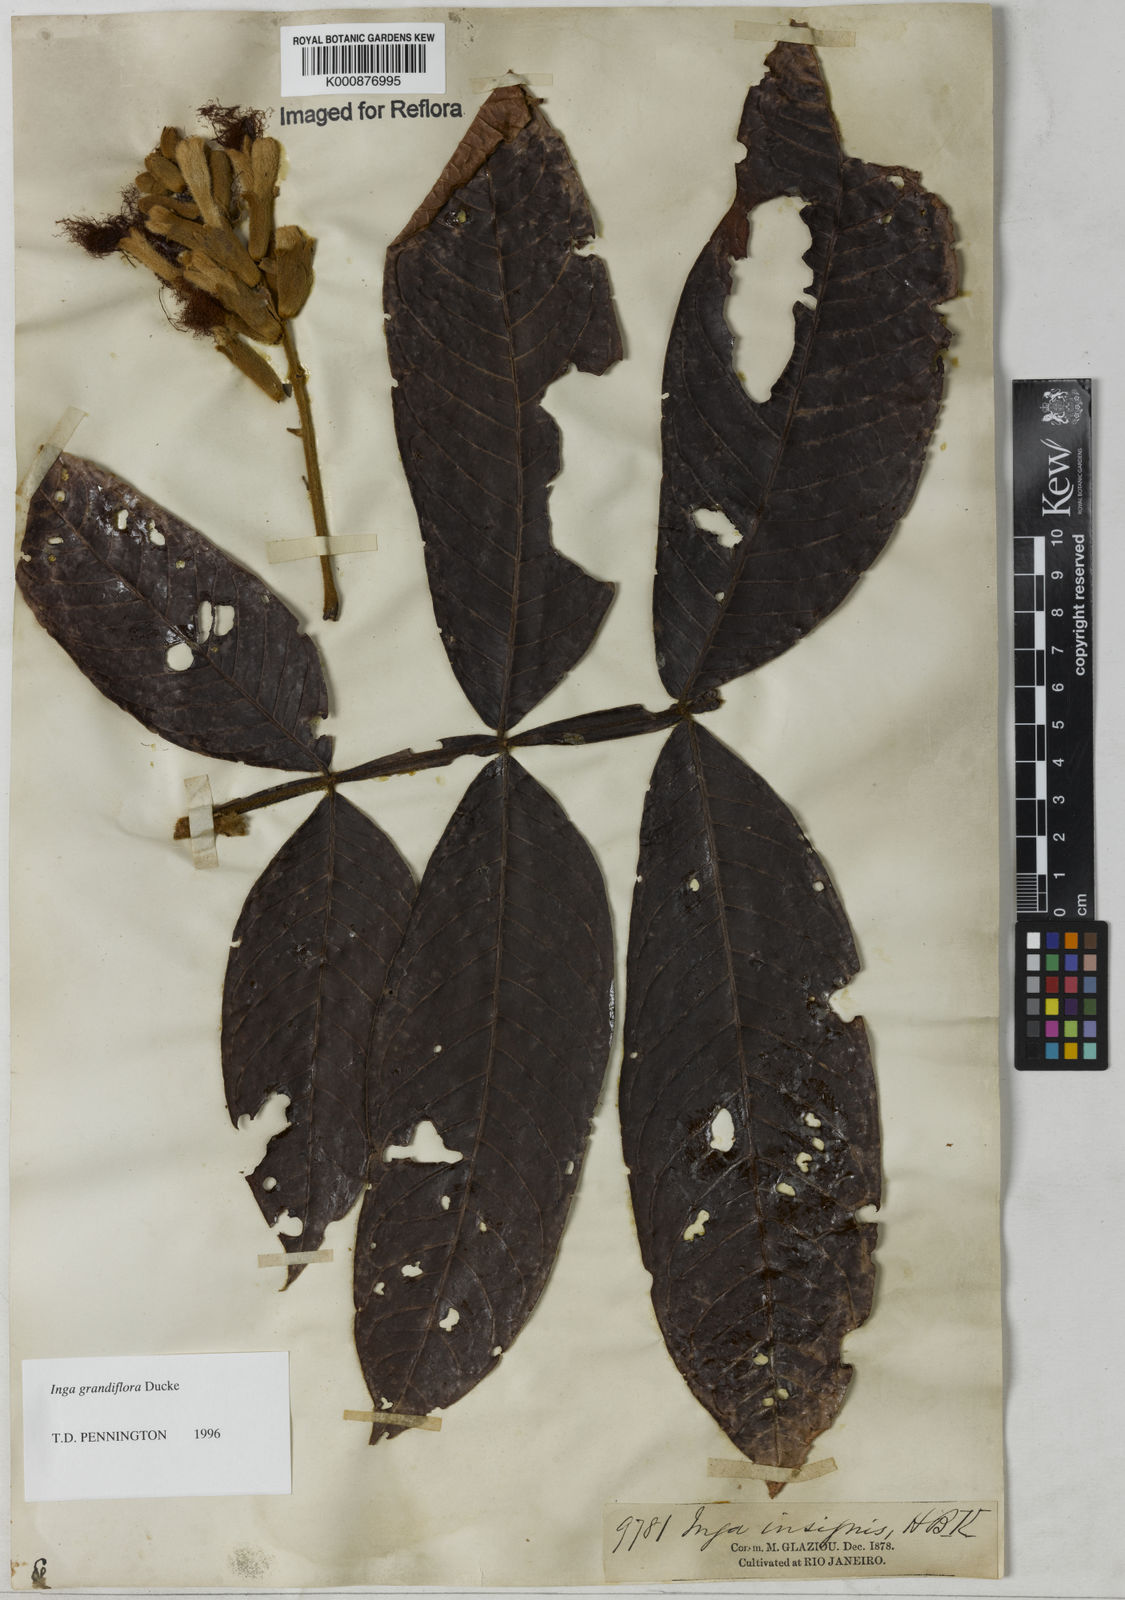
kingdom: Plantae
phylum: Tracheophyta
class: Magnoliopsida
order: Fabales
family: Fabaceae
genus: Inga
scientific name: Inga crassiflora
